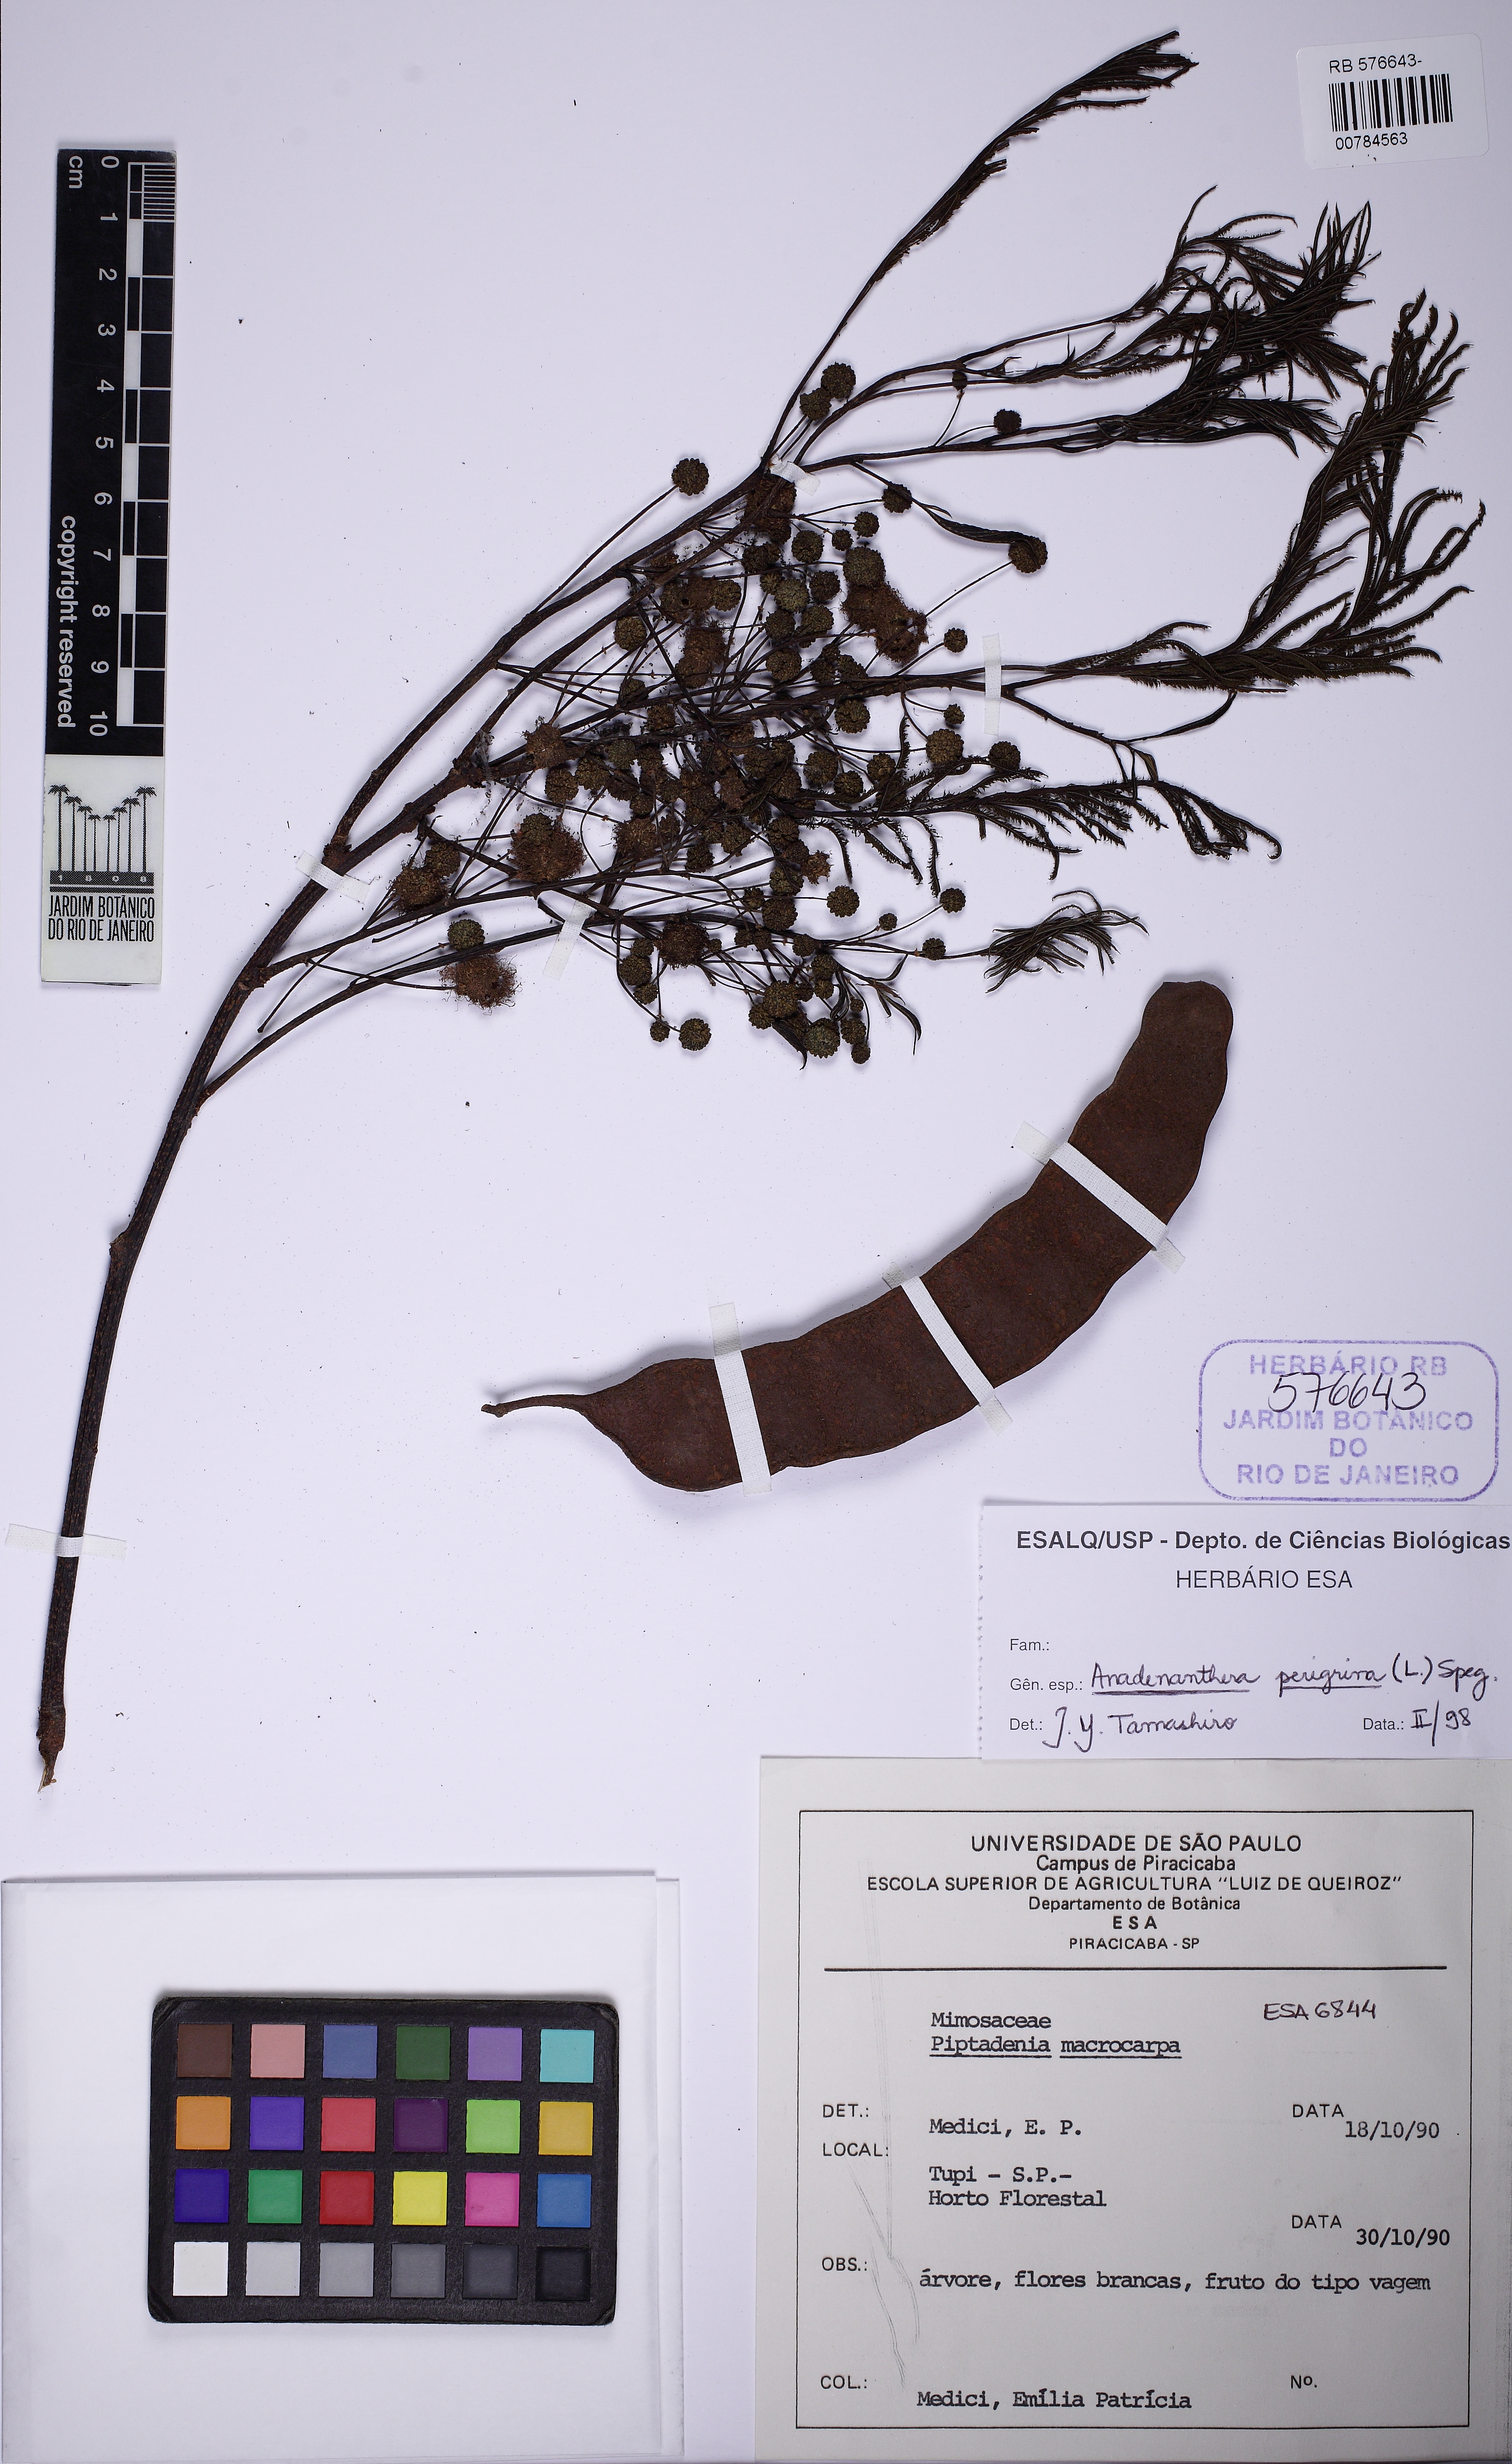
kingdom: Plantae
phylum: Tracheophyta
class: Magnoliopsida
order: Fabales
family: Fabaceae
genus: Anadenanthera
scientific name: Anadenanthera peregrina
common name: Cohoba
